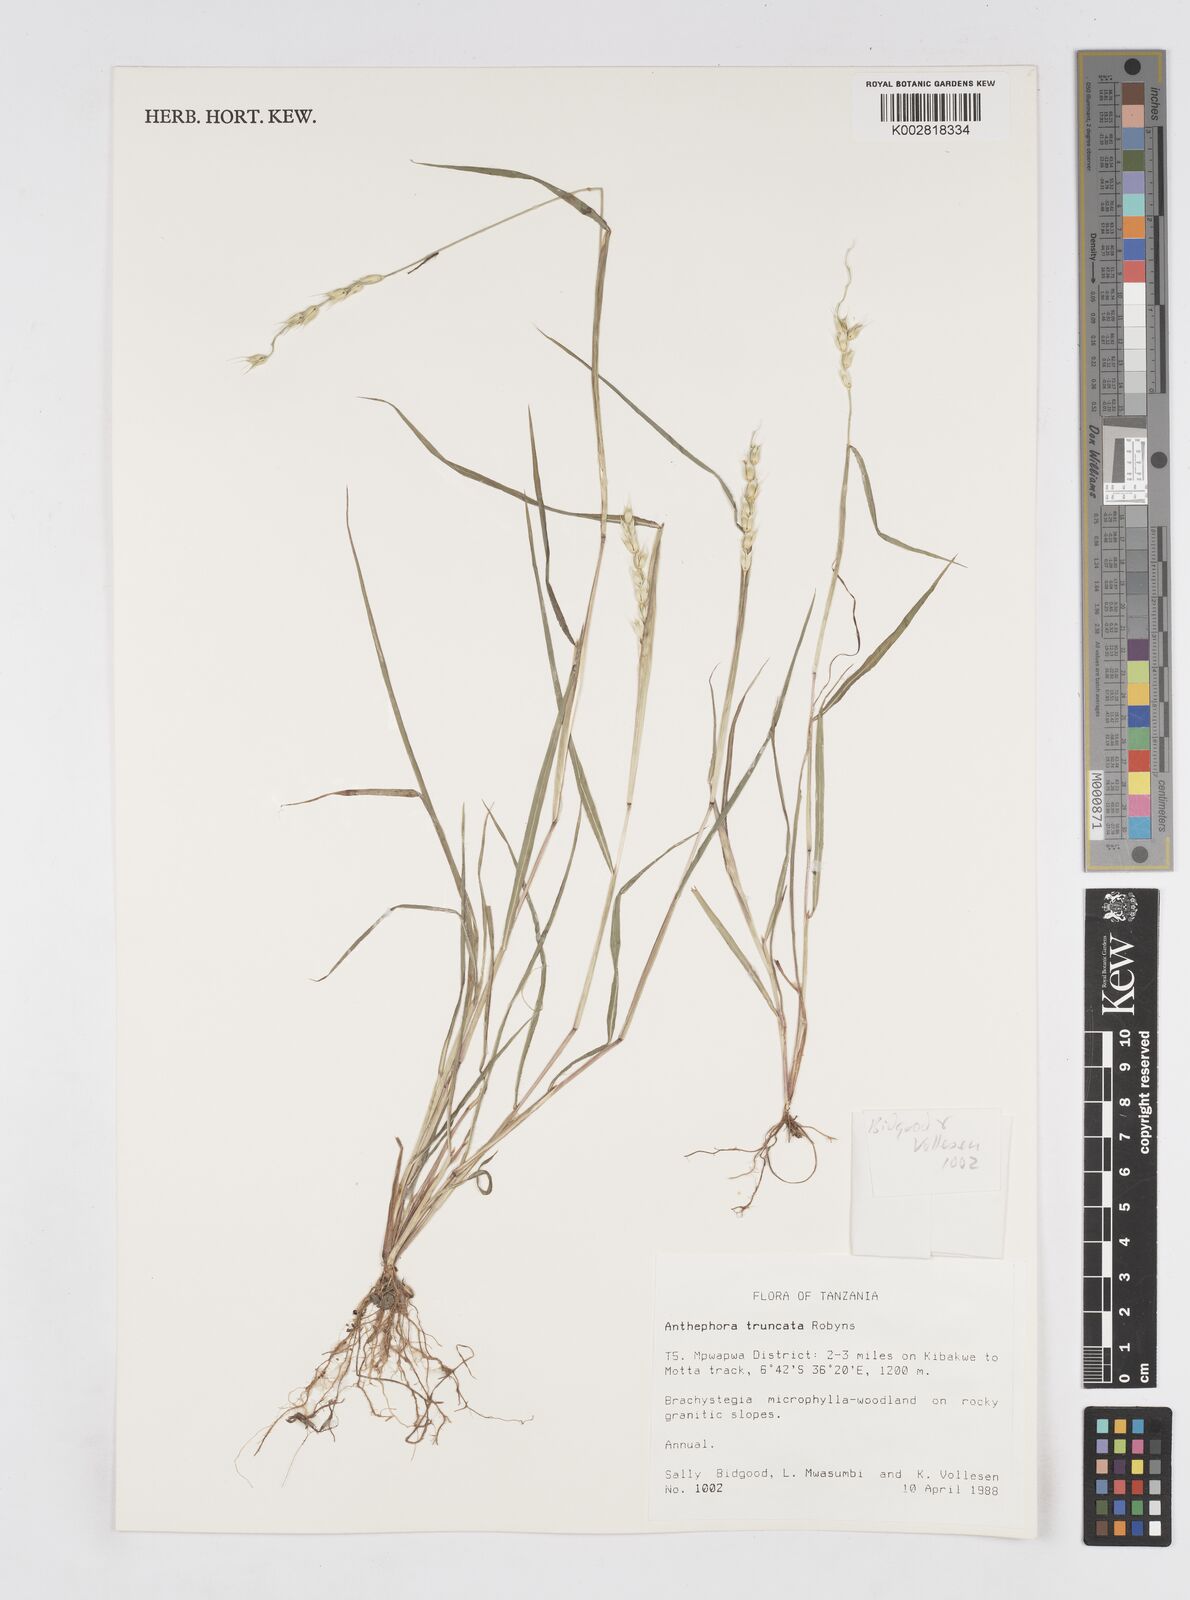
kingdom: Plantae
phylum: Tracheophyta
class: Liliopsida
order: Poales
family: Poaceae
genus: Anthephora
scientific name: Anthephora truncata
